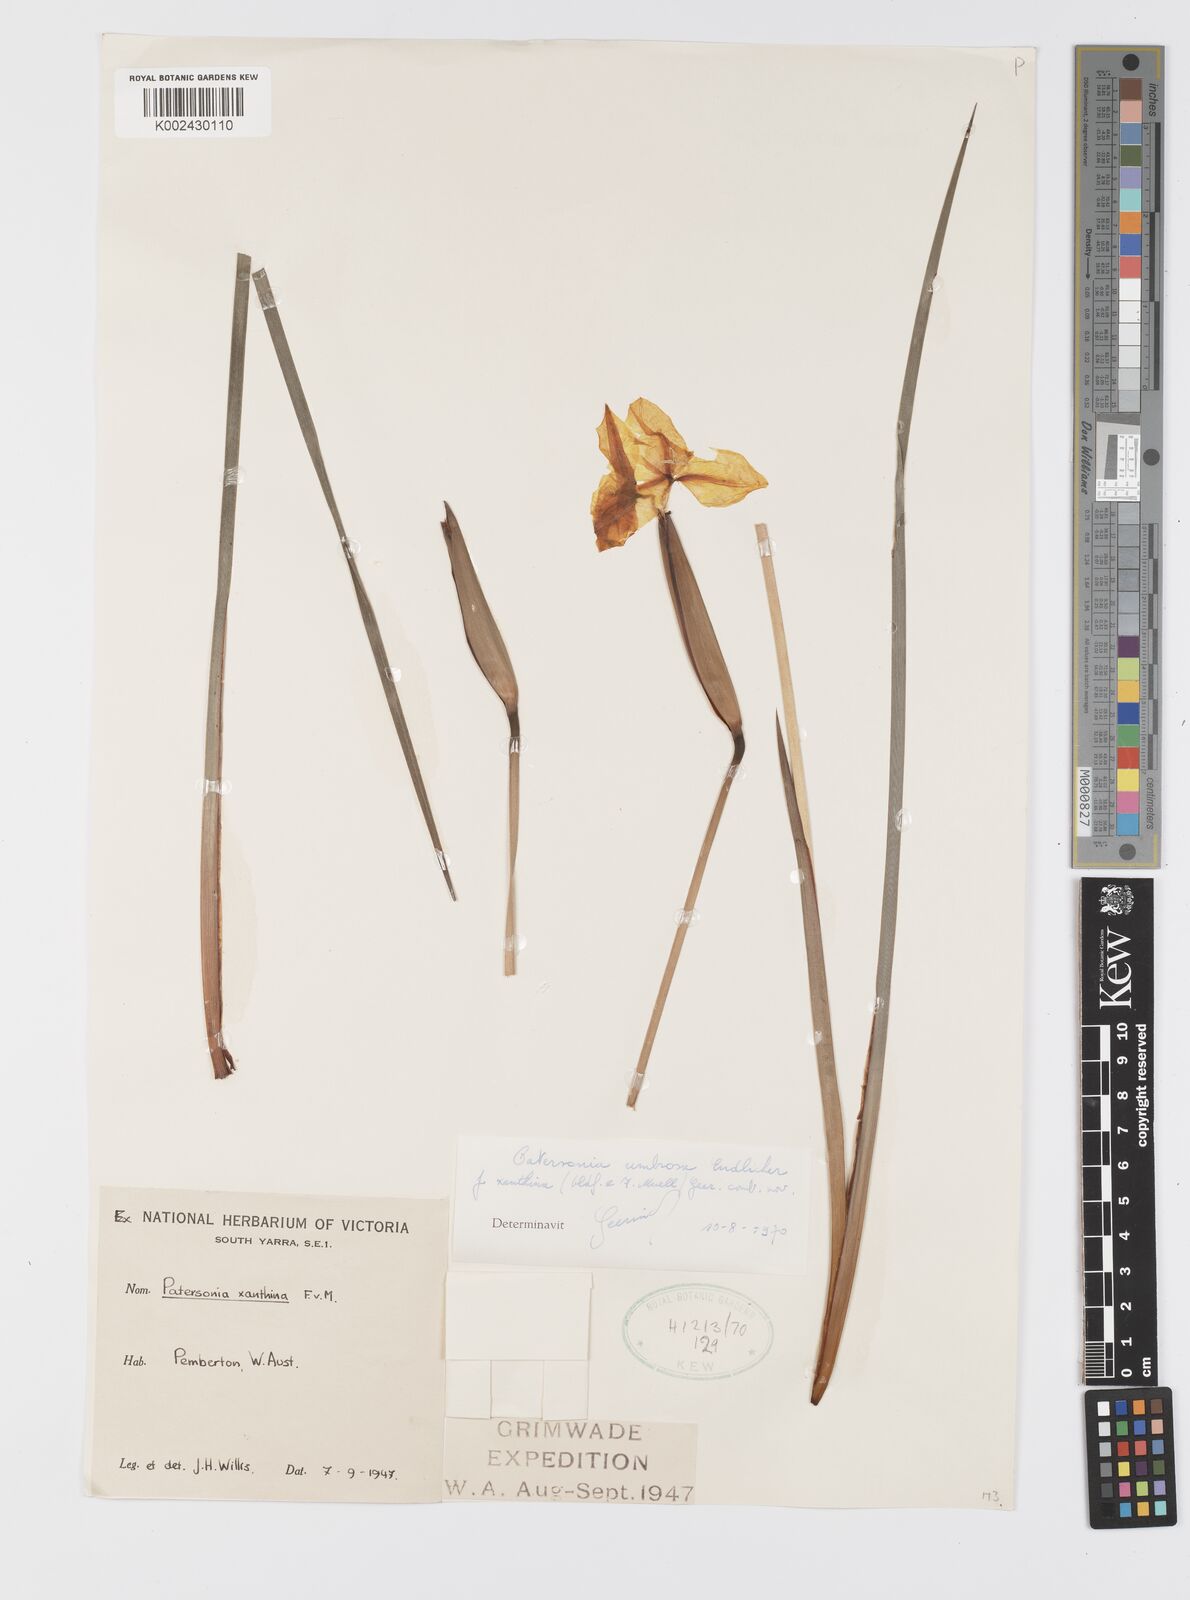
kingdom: Plantae
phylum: Tracheophyta
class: Liliopsida
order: Asparagales
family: Iridaceae
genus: Patersonia
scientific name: Patersonia umbrosa
